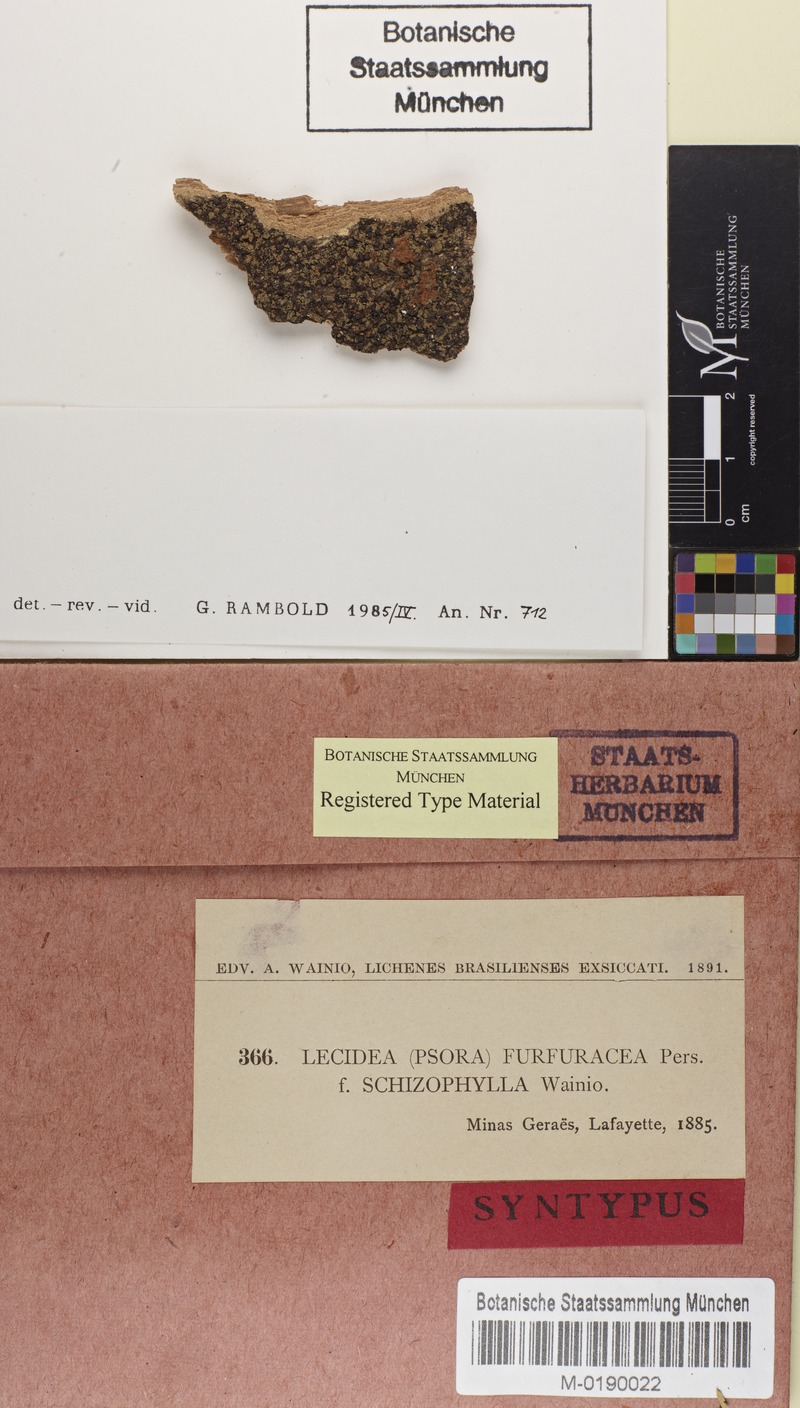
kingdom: Fungi
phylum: Ascomycota
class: Lecanoromycetes
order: Lecanorales
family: Ramalinaceae
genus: Phyllopsora
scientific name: Phyllopsora chlorophaea
